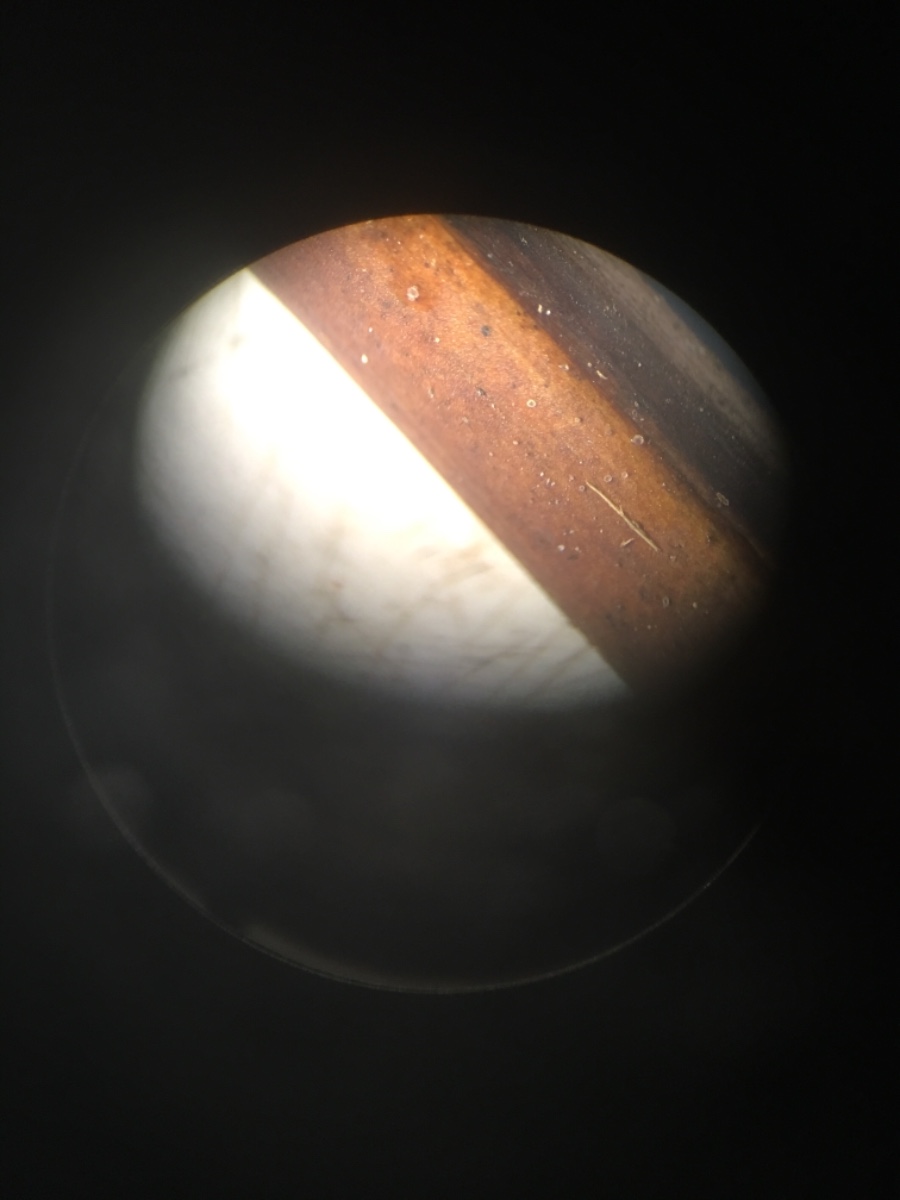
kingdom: Fungi
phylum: Ascomycota
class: Leotiomycetes
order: Helotiales
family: Hyaloscyphaceae
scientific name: Hyaloscyphaceae
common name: frynseskivefamilien
